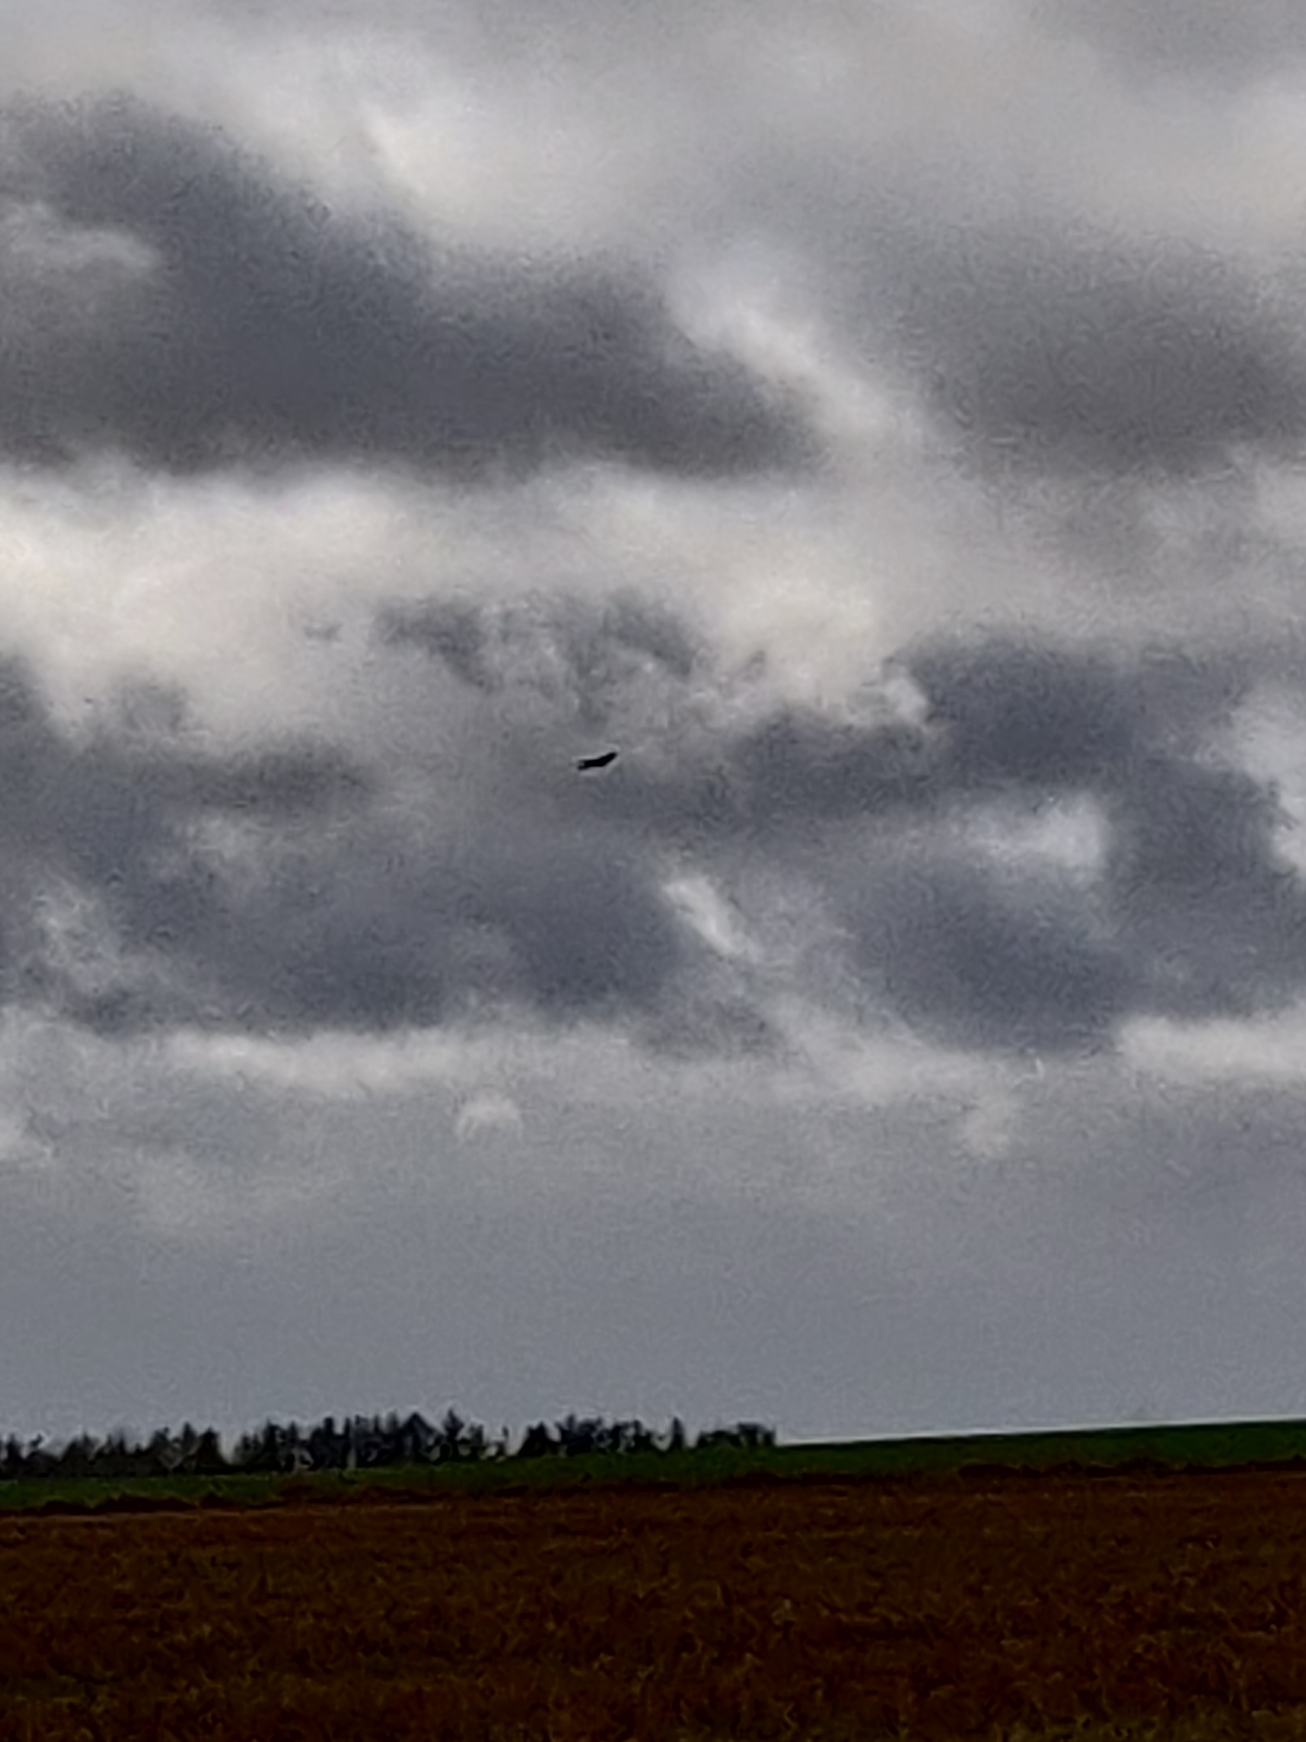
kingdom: Animalia
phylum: Chordata
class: Aves
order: Accipitriformes
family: Accipitridae
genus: Milvus
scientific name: Milvus milvus
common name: Rød glente
